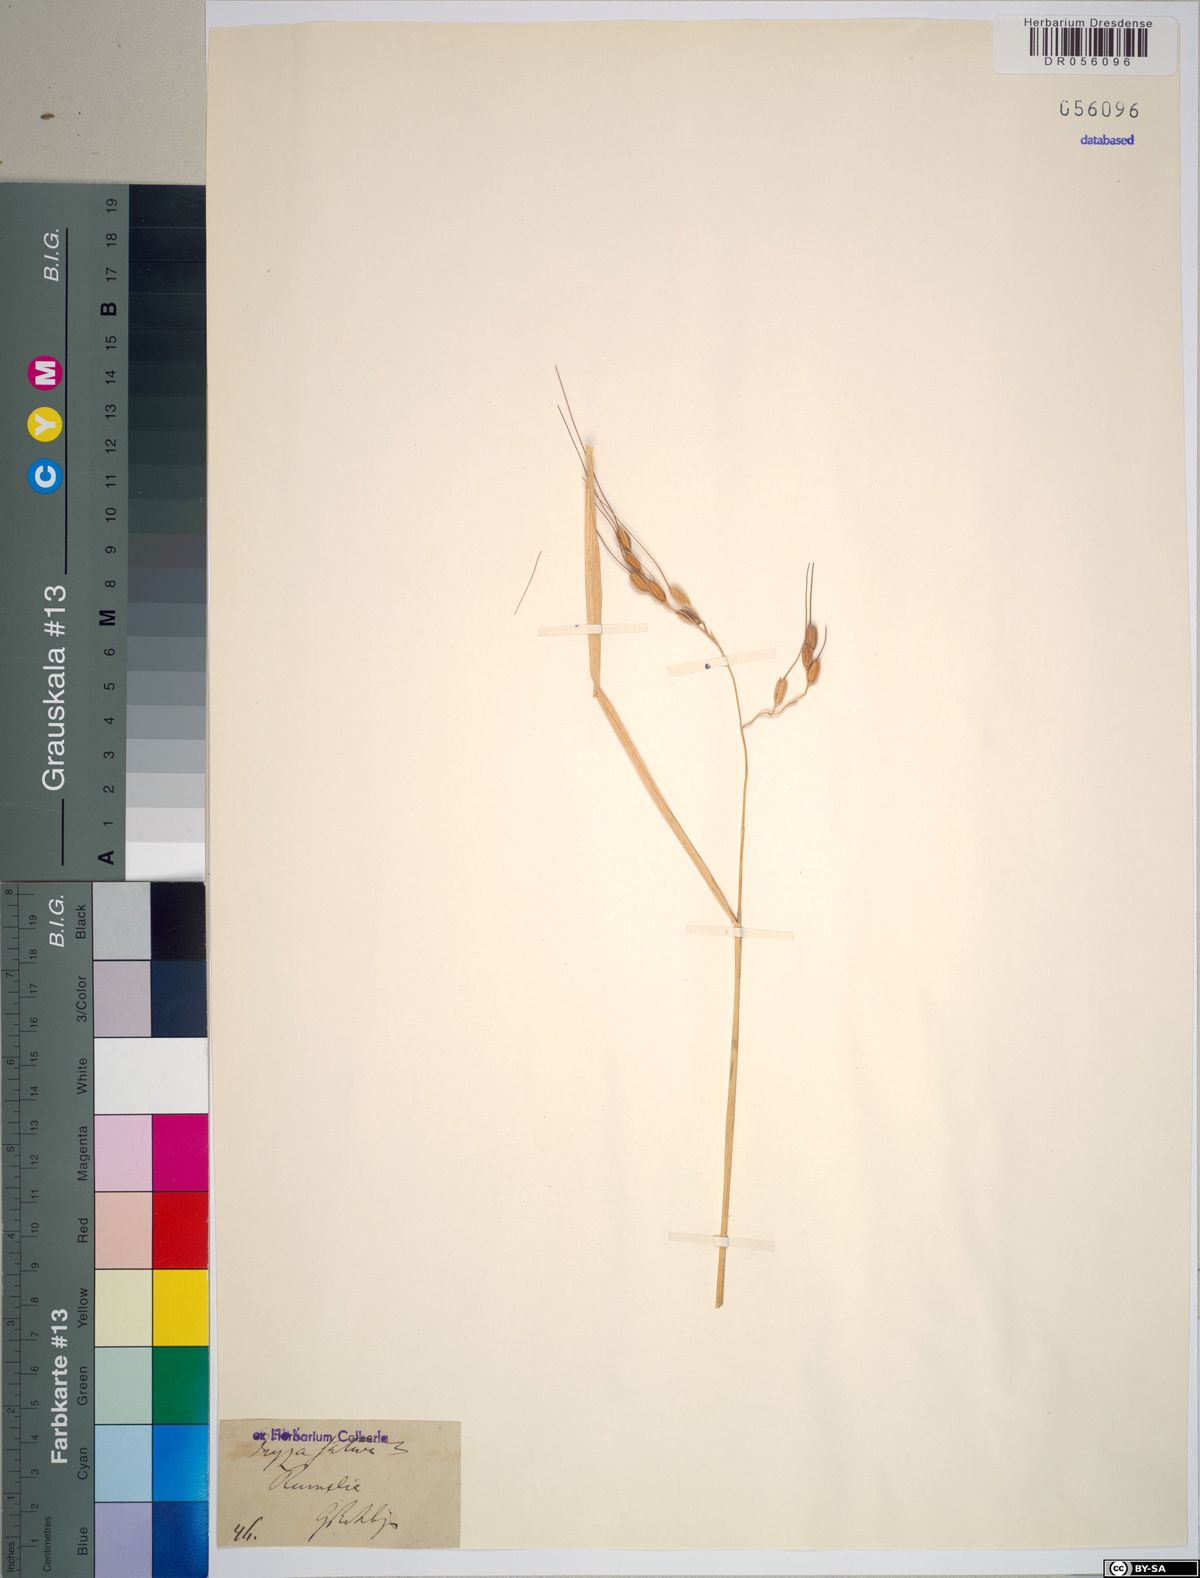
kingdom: Plantae
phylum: Tracheophyta
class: Liliopsida
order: Poales
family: Poaceae
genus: Oryza
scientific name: Oryza sativa
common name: Rice
